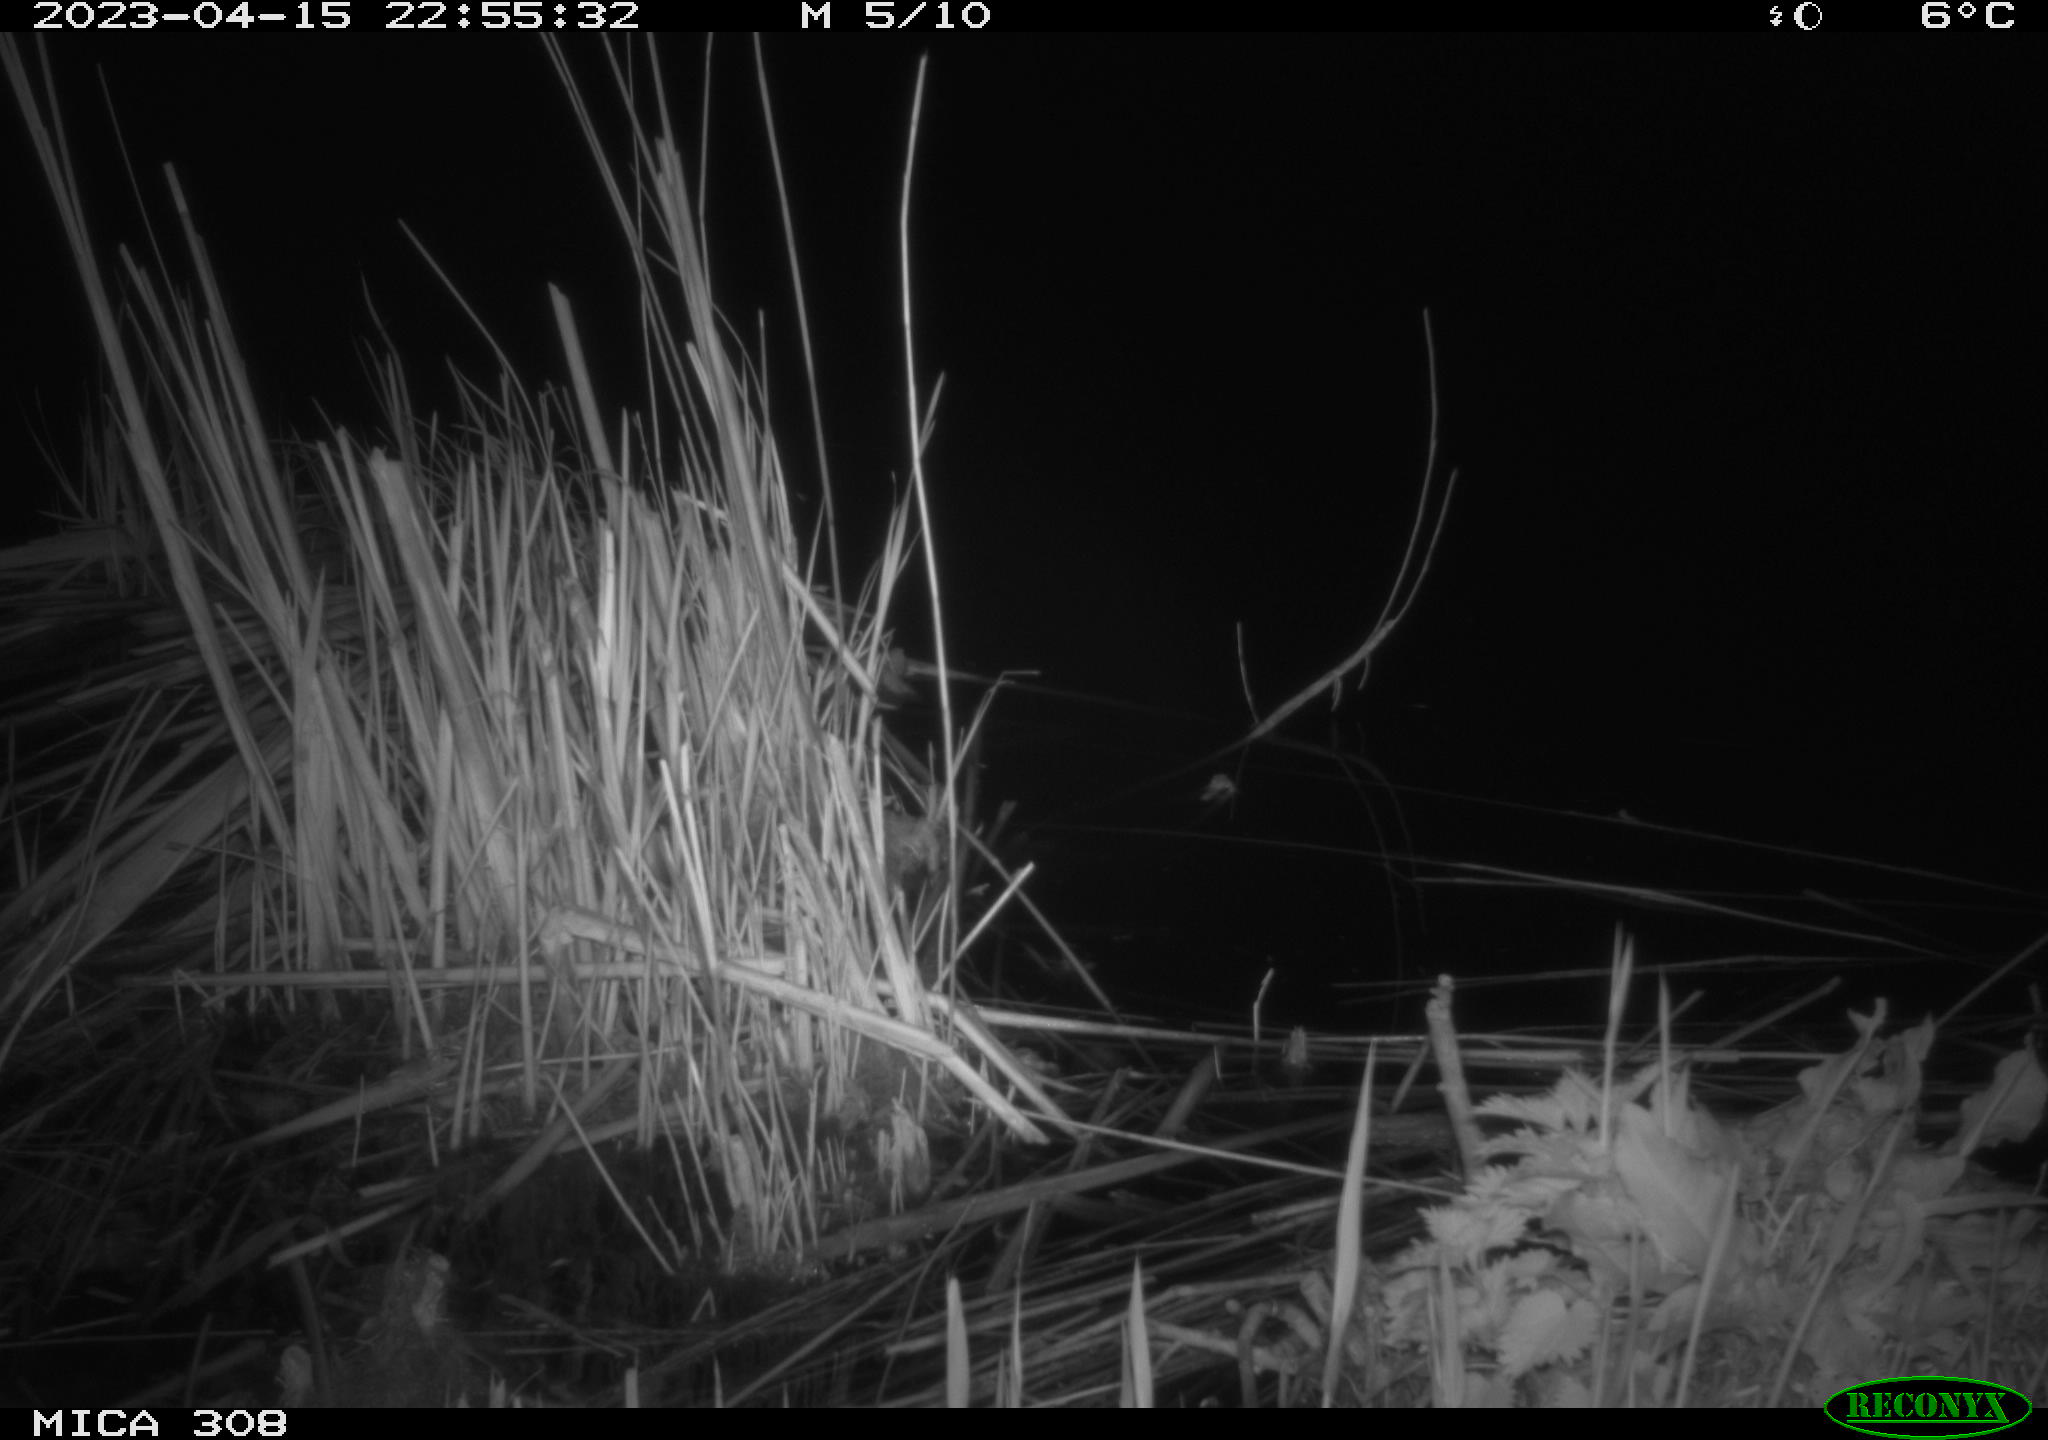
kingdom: Animalia
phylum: Chordata
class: Mammalia
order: Rodentia
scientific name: Rodentia
